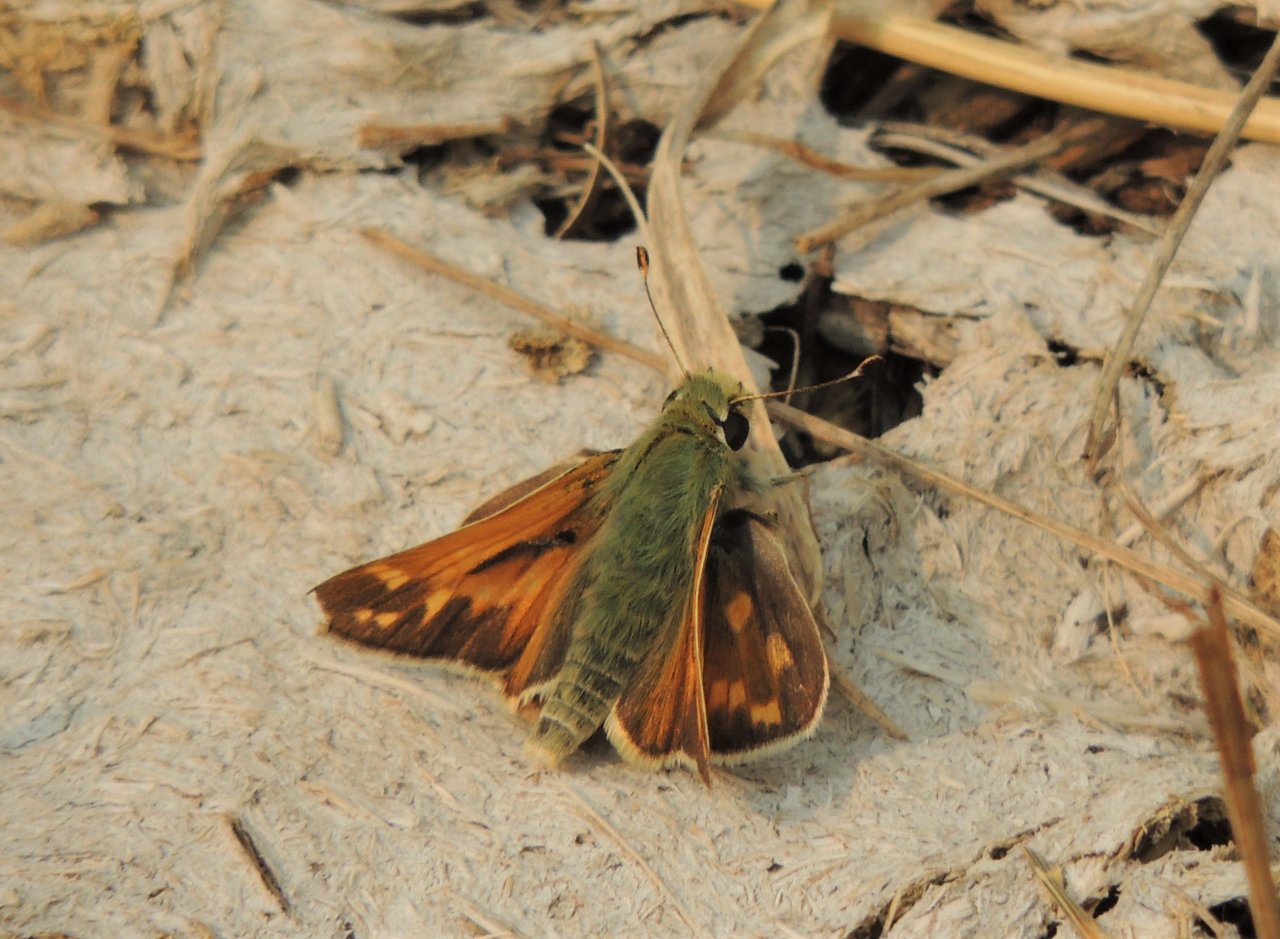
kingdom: Animalia
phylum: Arthropoda
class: Insecta
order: Lepidoptera
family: Hesperiidae
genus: Hesperia
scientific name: Hesperia juba
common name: Juba Skipper
